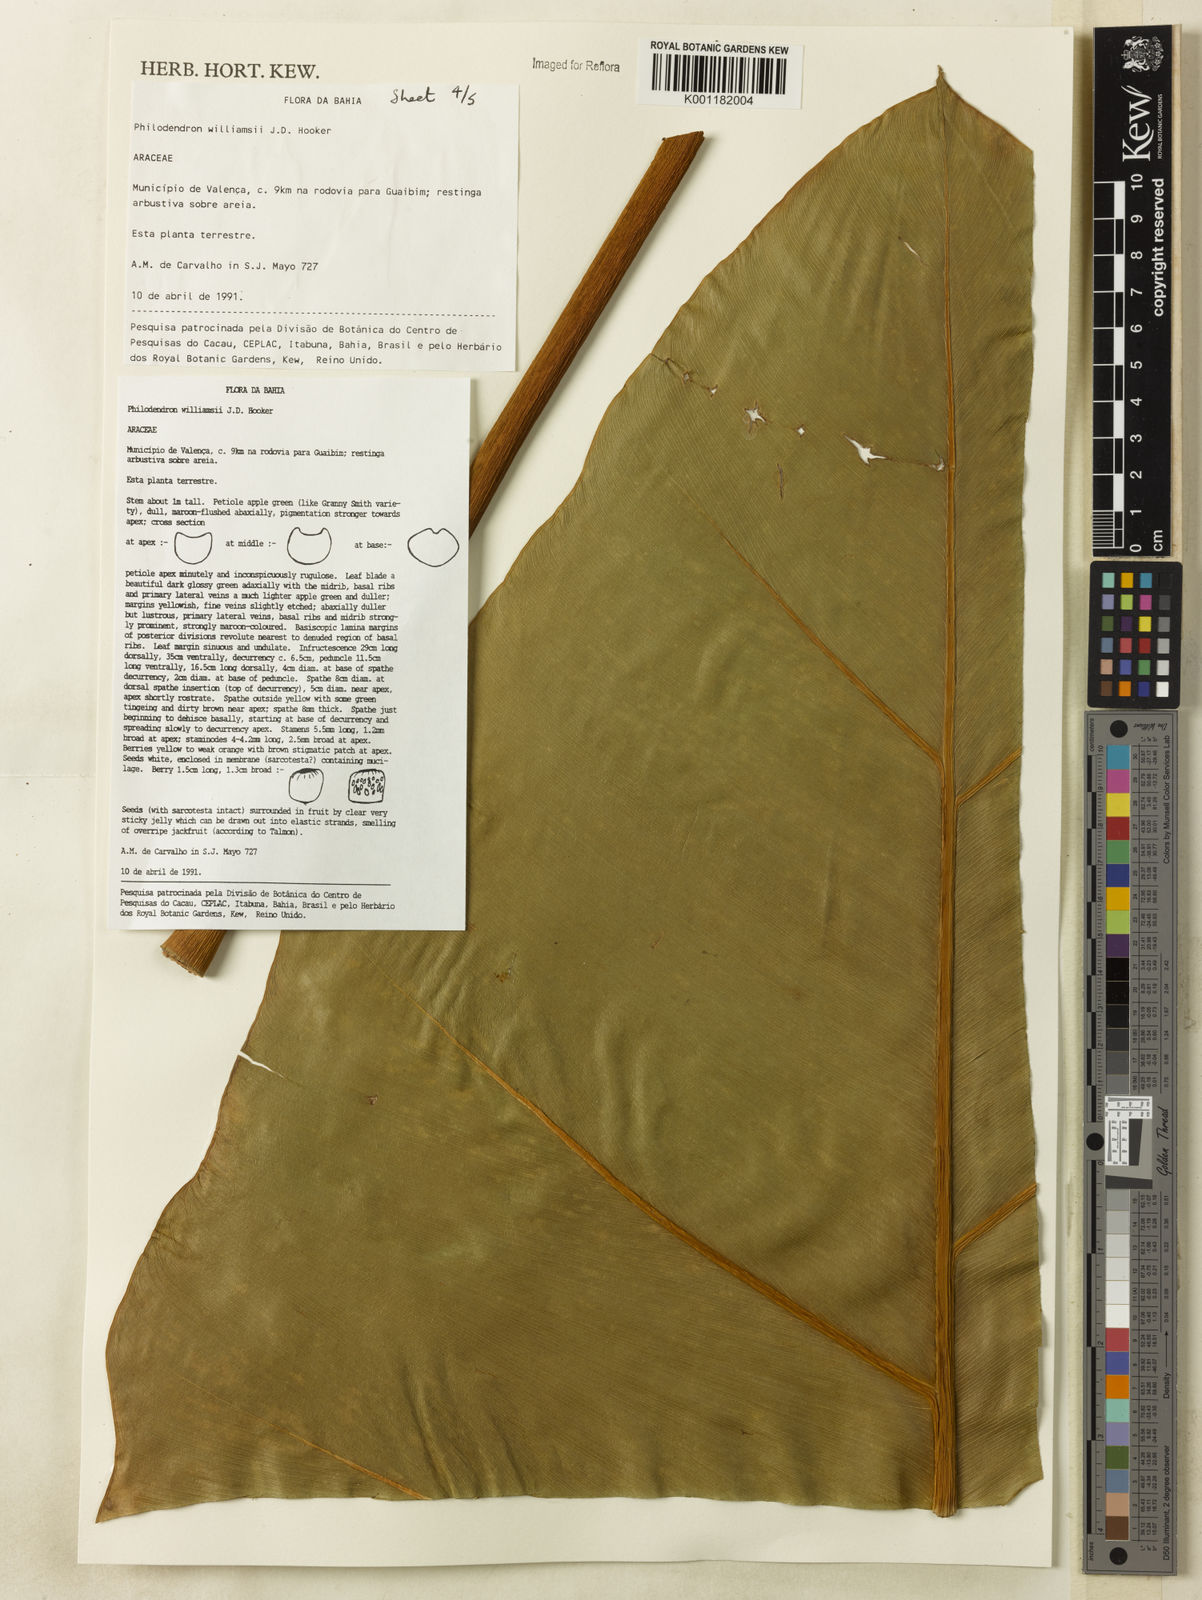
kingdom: Plantae
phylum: Tracheophyta
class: Liliopsida
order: Alismatales
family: Araceae
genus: Thaumatophyllum
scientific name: Thaumatophyllum williamsii
